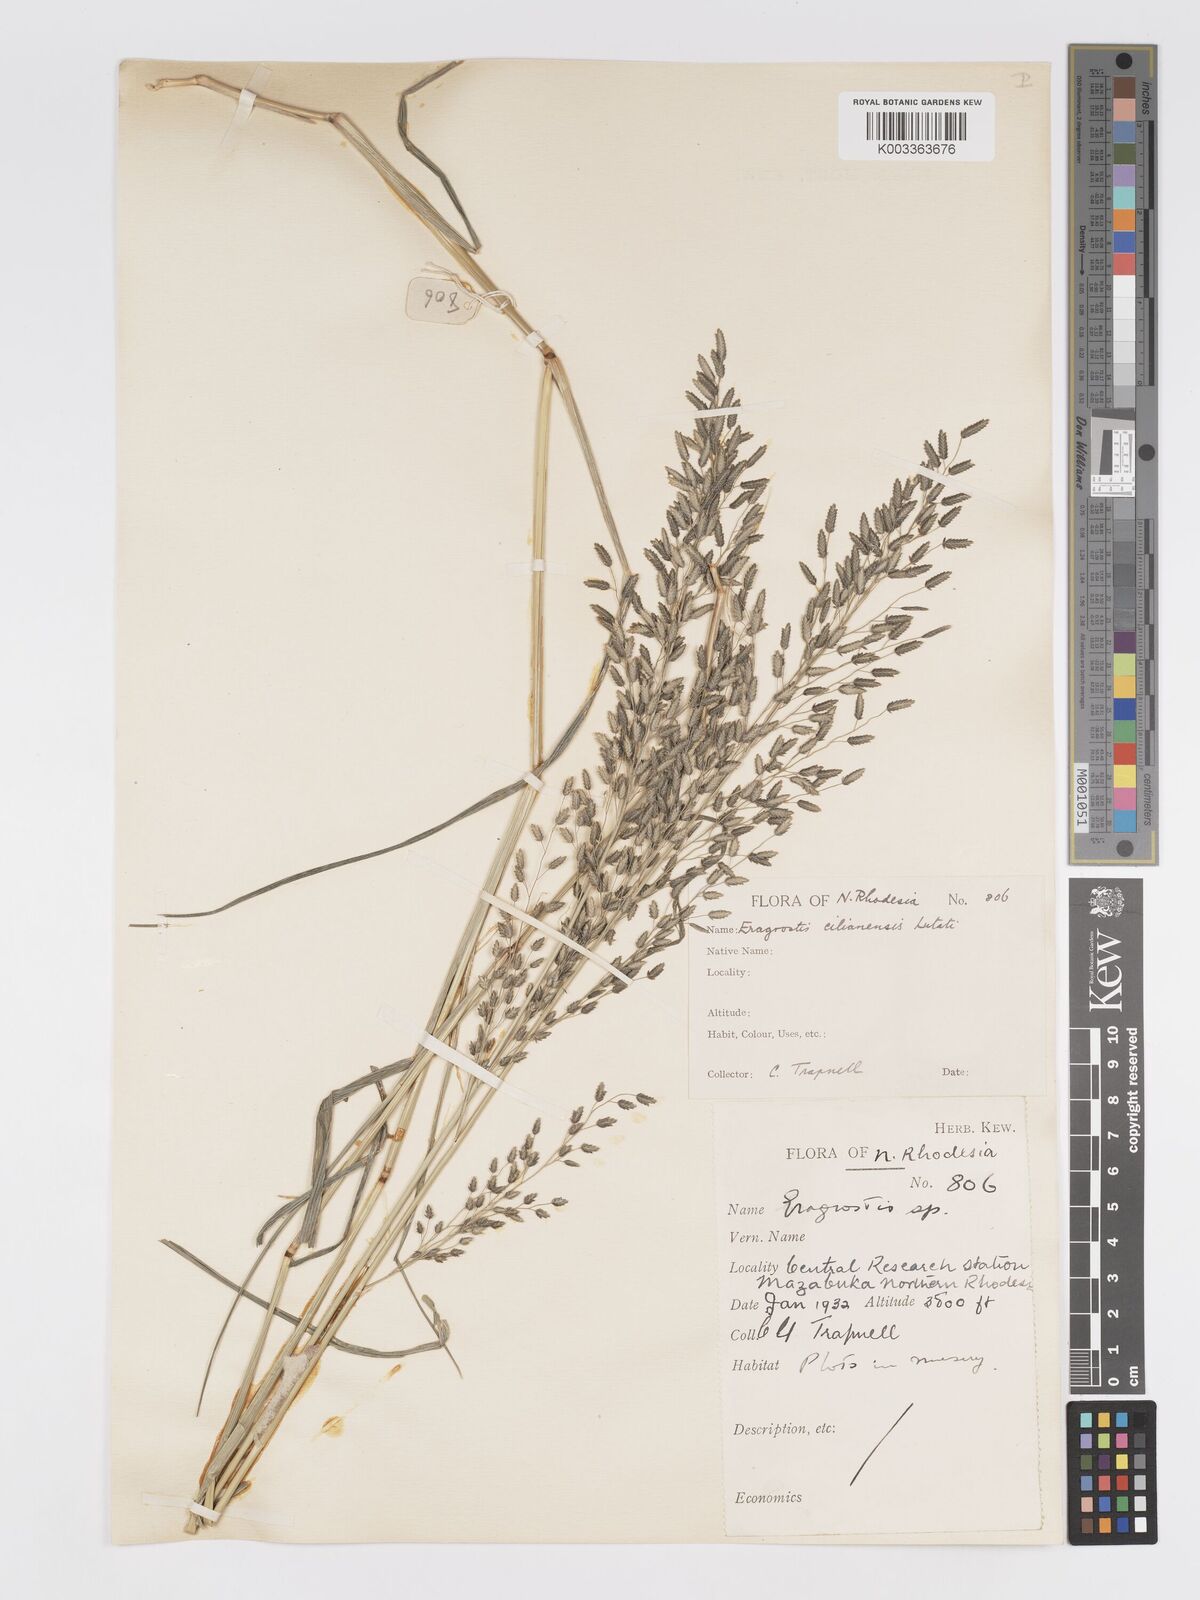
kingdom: Plantae
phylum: Tracheophyta
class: Liliopsida
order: Poales
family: Poaceae
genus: Eragrostis
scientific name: Eragrostis cilianensis
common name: Stinkgrass
